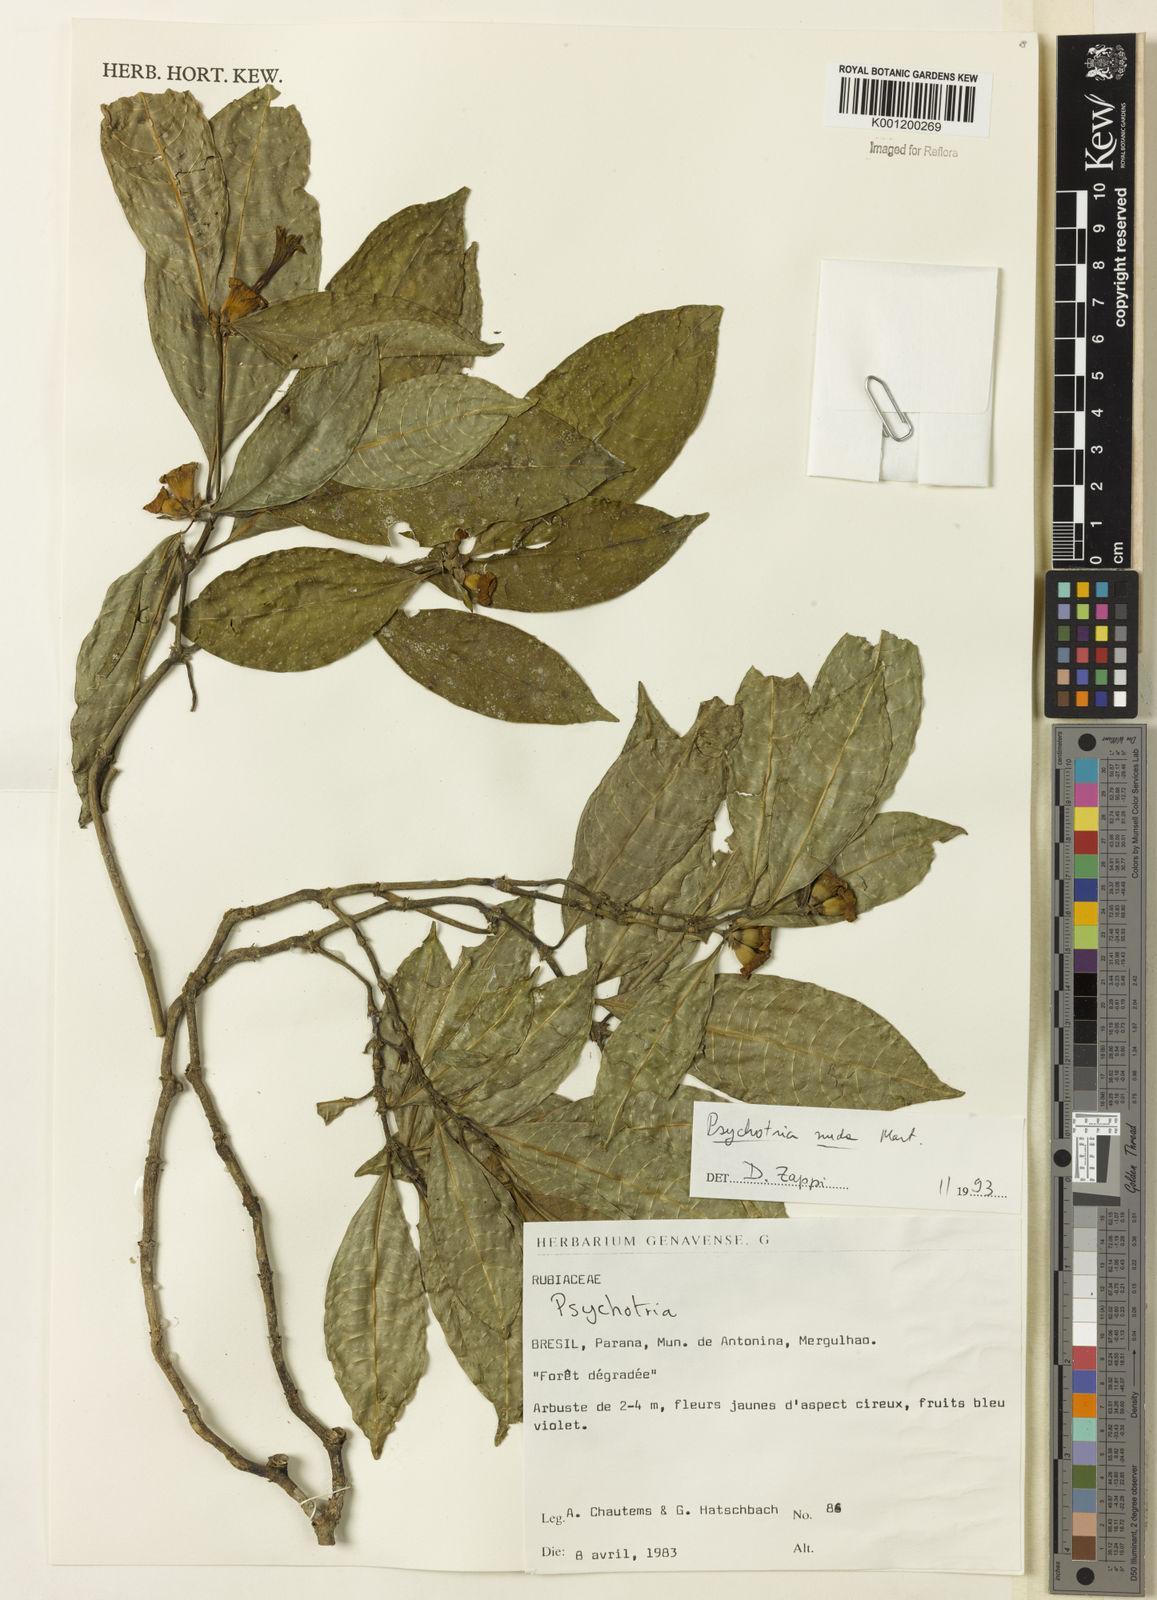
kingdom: Plantae
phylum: Tracheophyta
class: Magnoliopsida
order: Gentianales
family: Rubiaceae
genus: Psychotria
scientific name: Psychotria nuda
